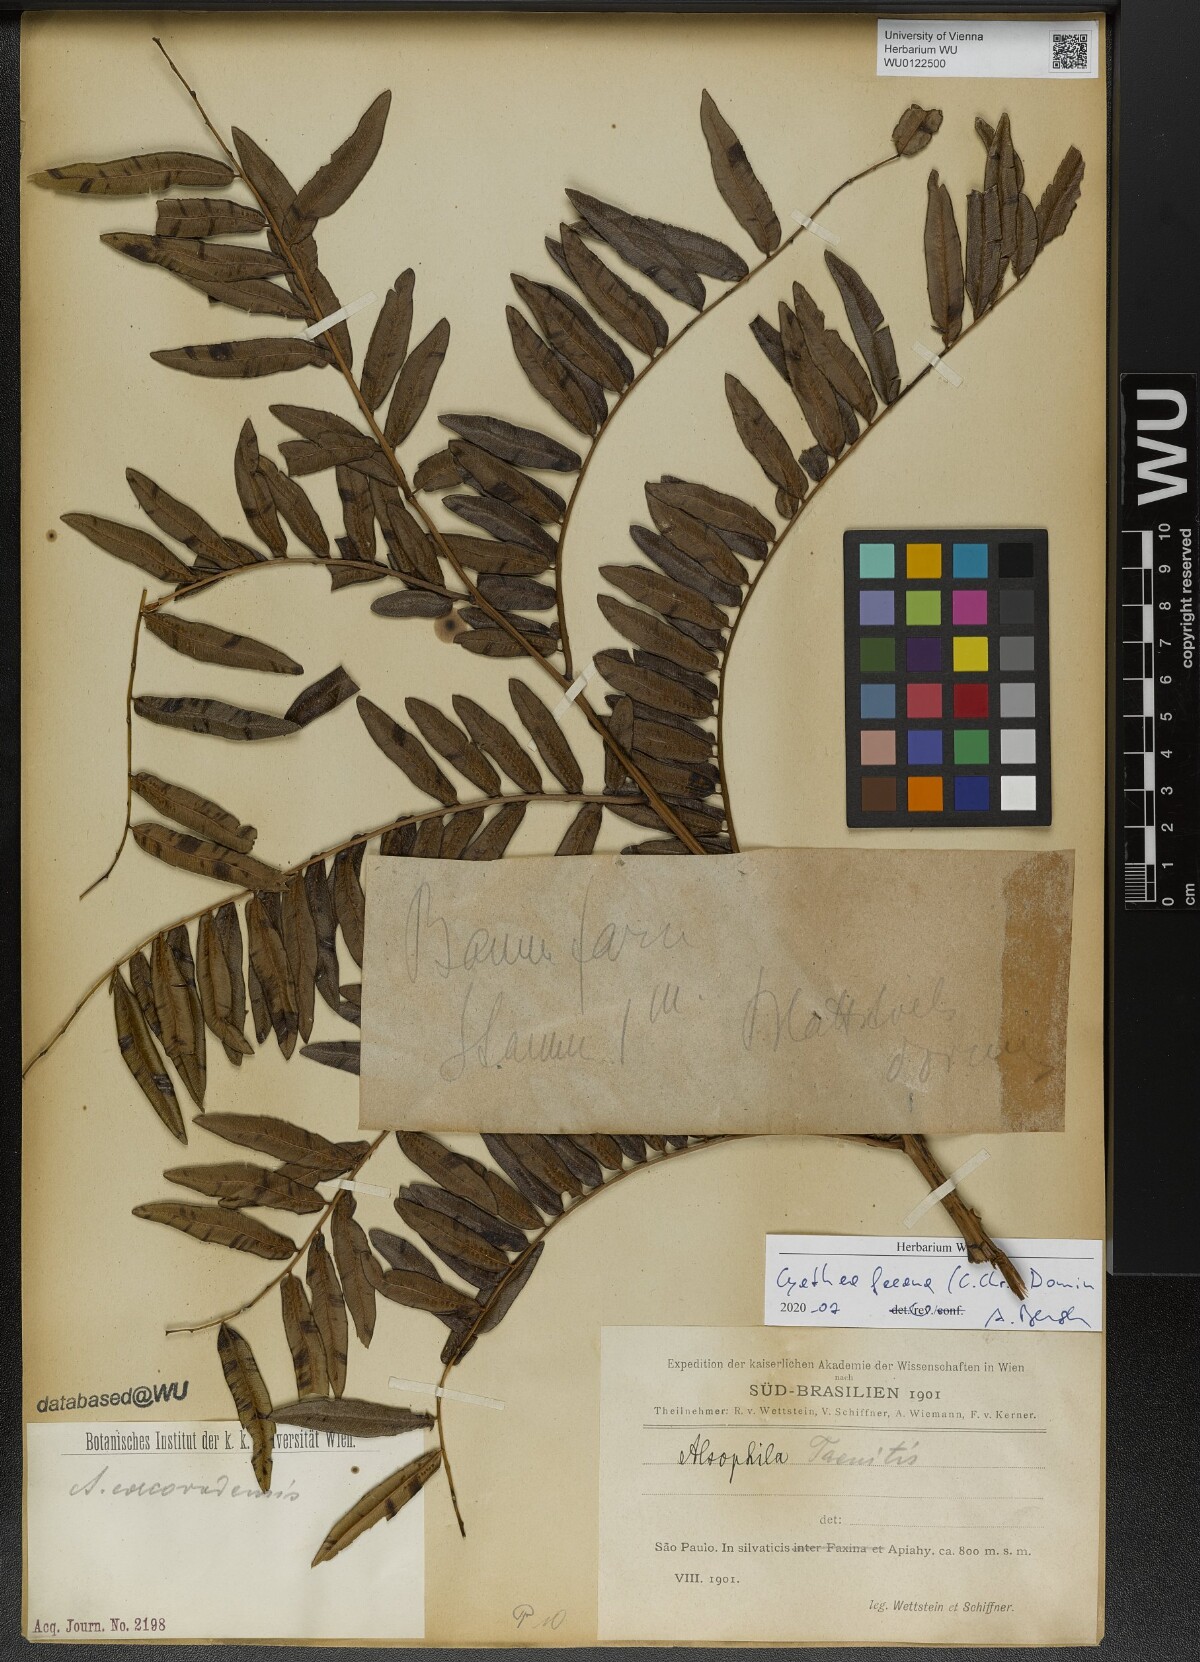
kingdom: Plantae
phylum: Tracheophyta
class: Polypodiopsida
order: Cyatheales
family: Cyatheaceae
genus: Cyathea
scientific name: Cyathea feeana
